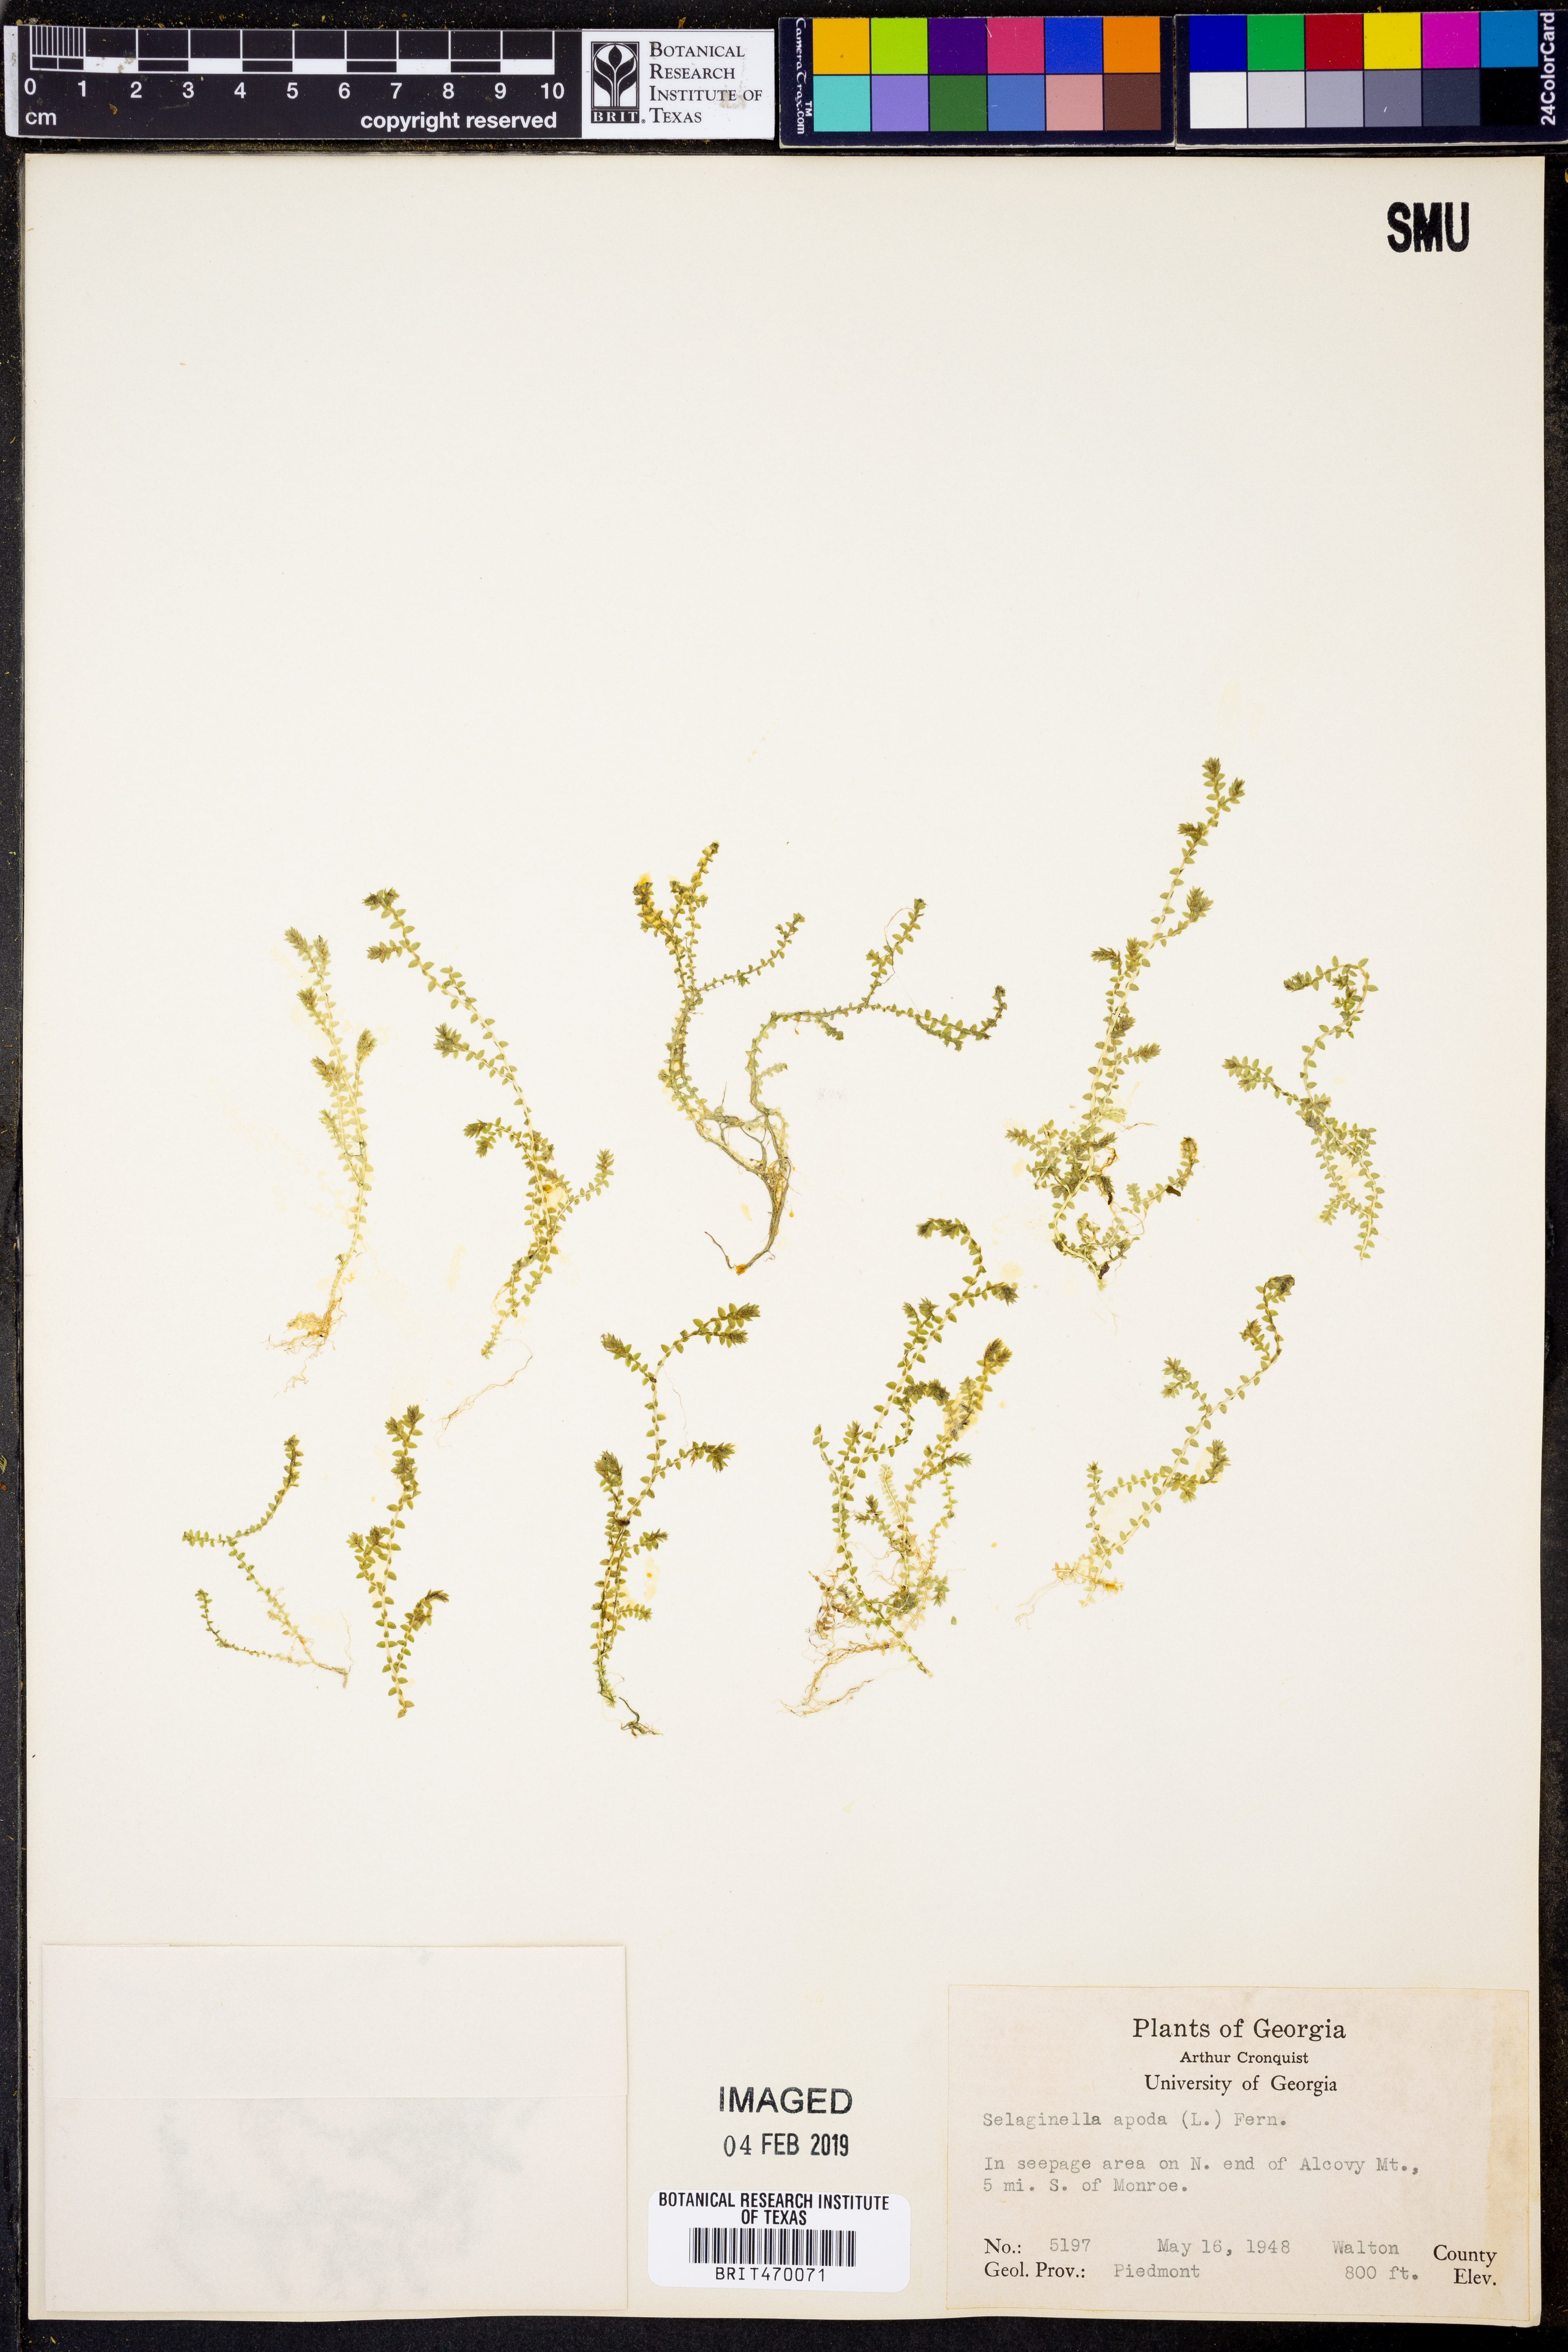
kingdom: Plantae
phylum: Tracheophyta
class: Lycopodiopsida
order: Selaginellales
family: Selaginellaceae
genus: Selaginella
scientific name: Selaginella apoda
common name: Creeping spikemoss
